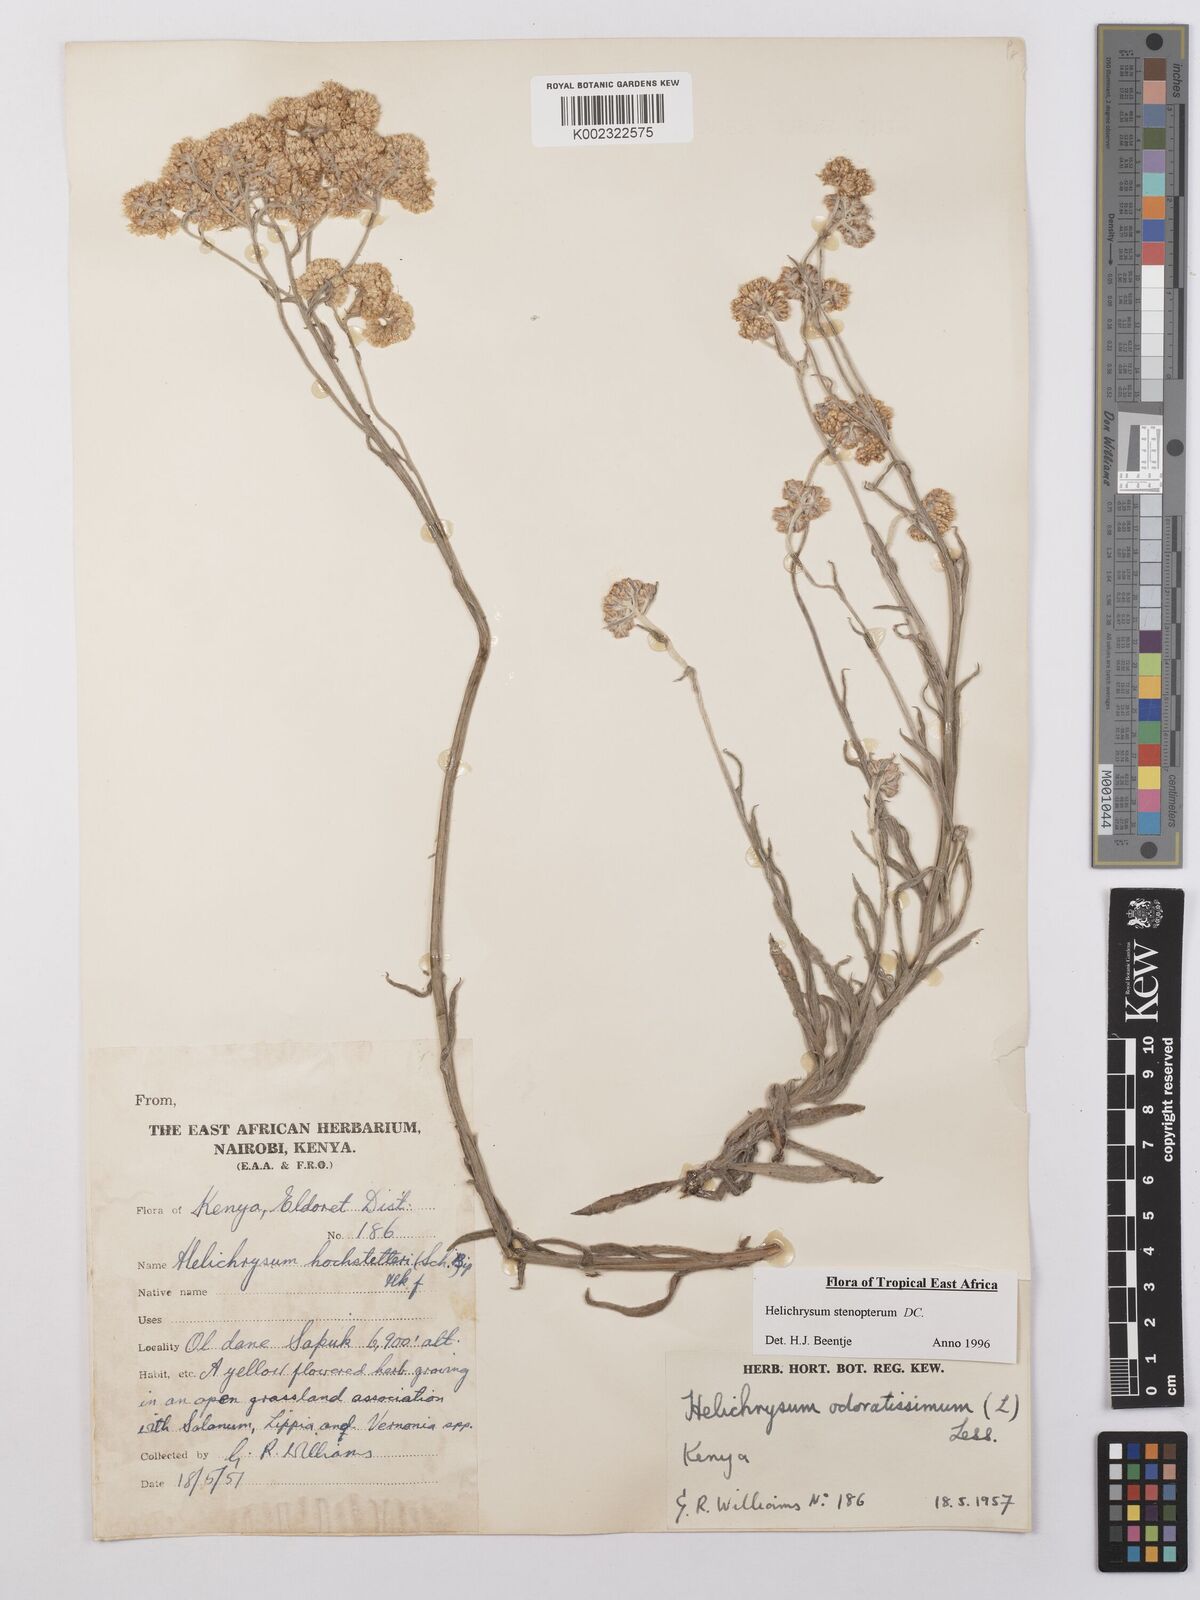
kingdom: Plantae
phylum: Tracheophyta
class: Magnoliopsida
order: Asterales
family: Asteraceae
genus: Helichrysum
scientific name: Helichrysum stenopterum
